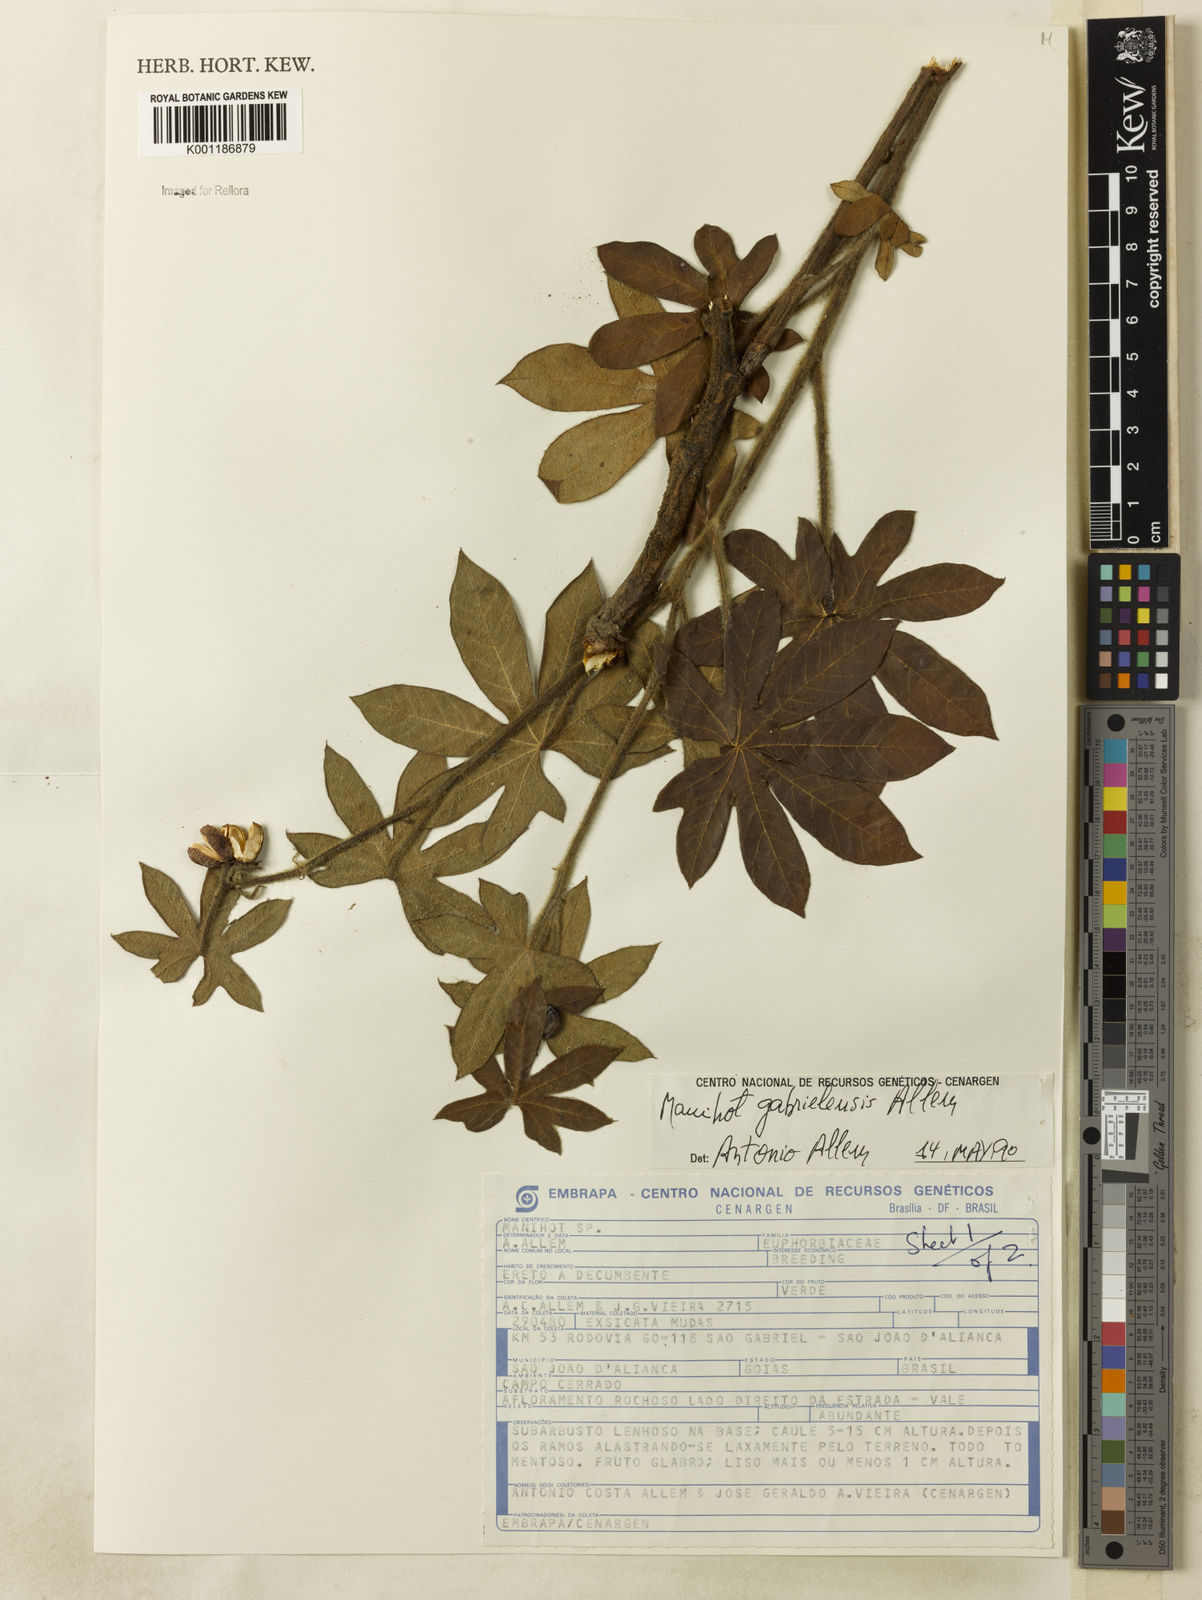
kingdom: Plantae
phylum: Tracheophyta
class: Magnoliopsida
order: Malpighiales
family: Euphorbiaceae
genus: Manihot
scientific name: Manihot gabrielensis
